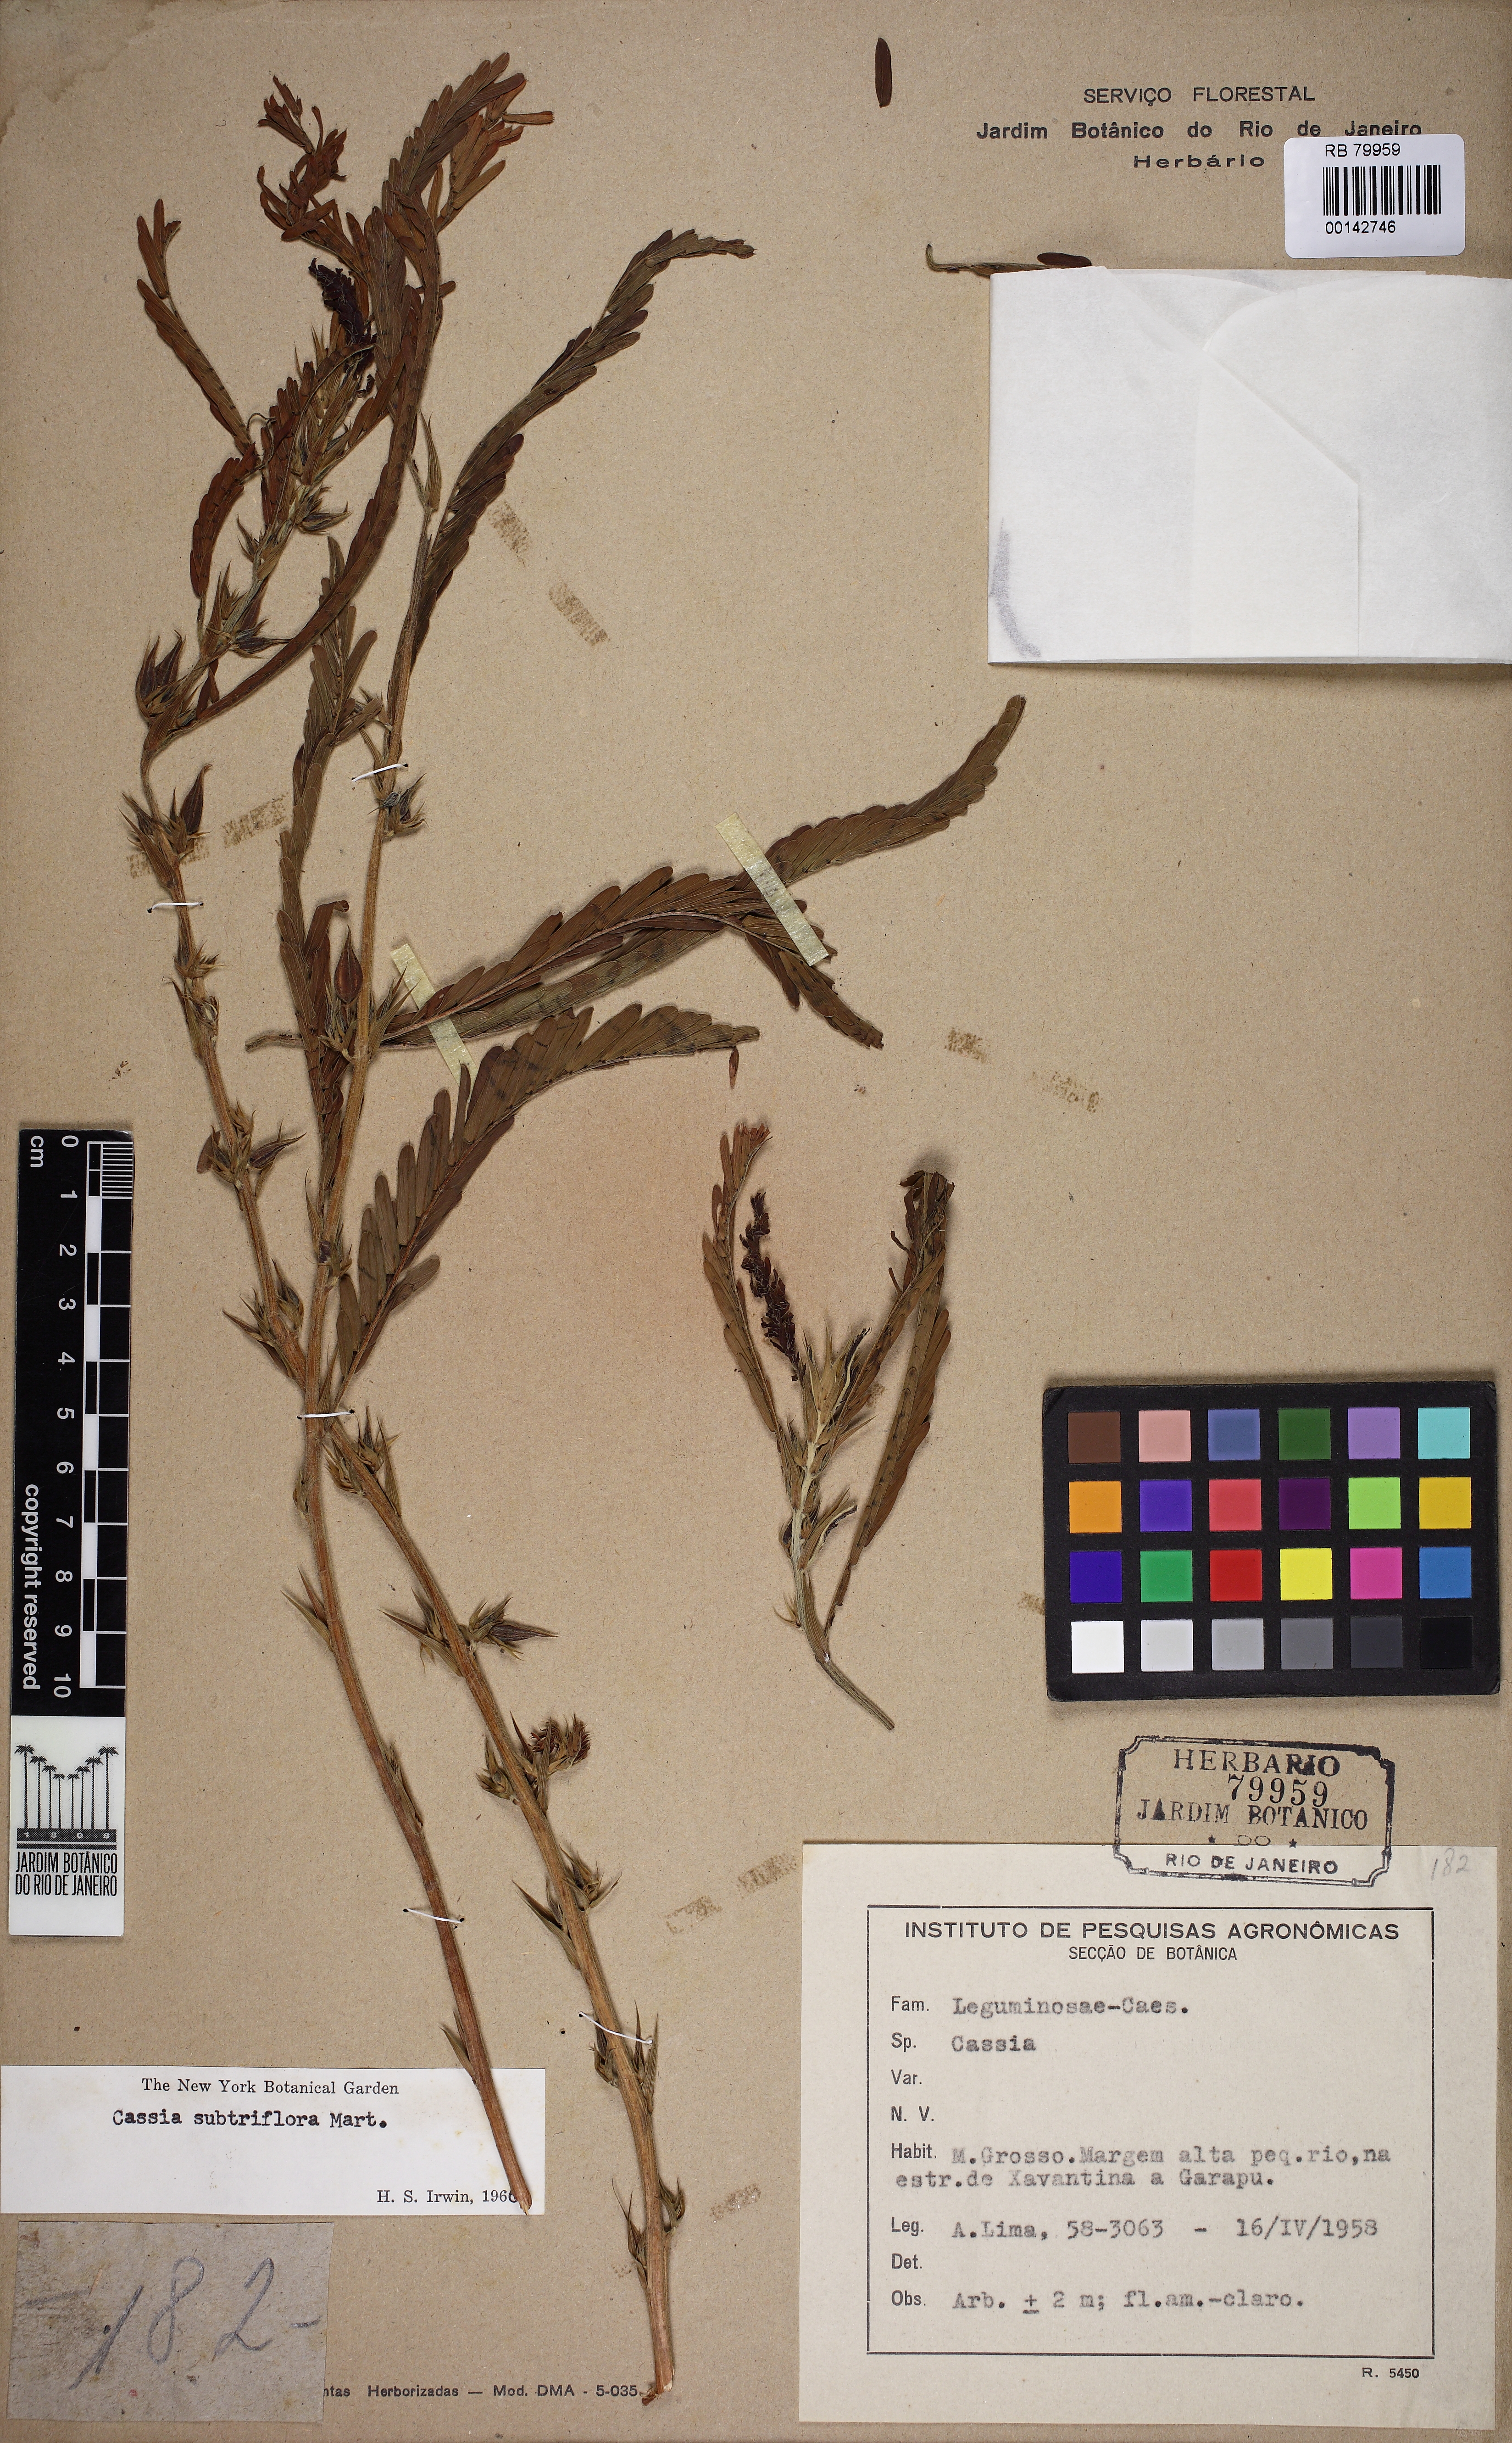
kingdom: Plantae
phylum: Tracheophyta
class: Magnoliopsida
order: Fabales
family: Fabaceae
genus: Chamaecrista
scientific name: Chamaecrista repens
